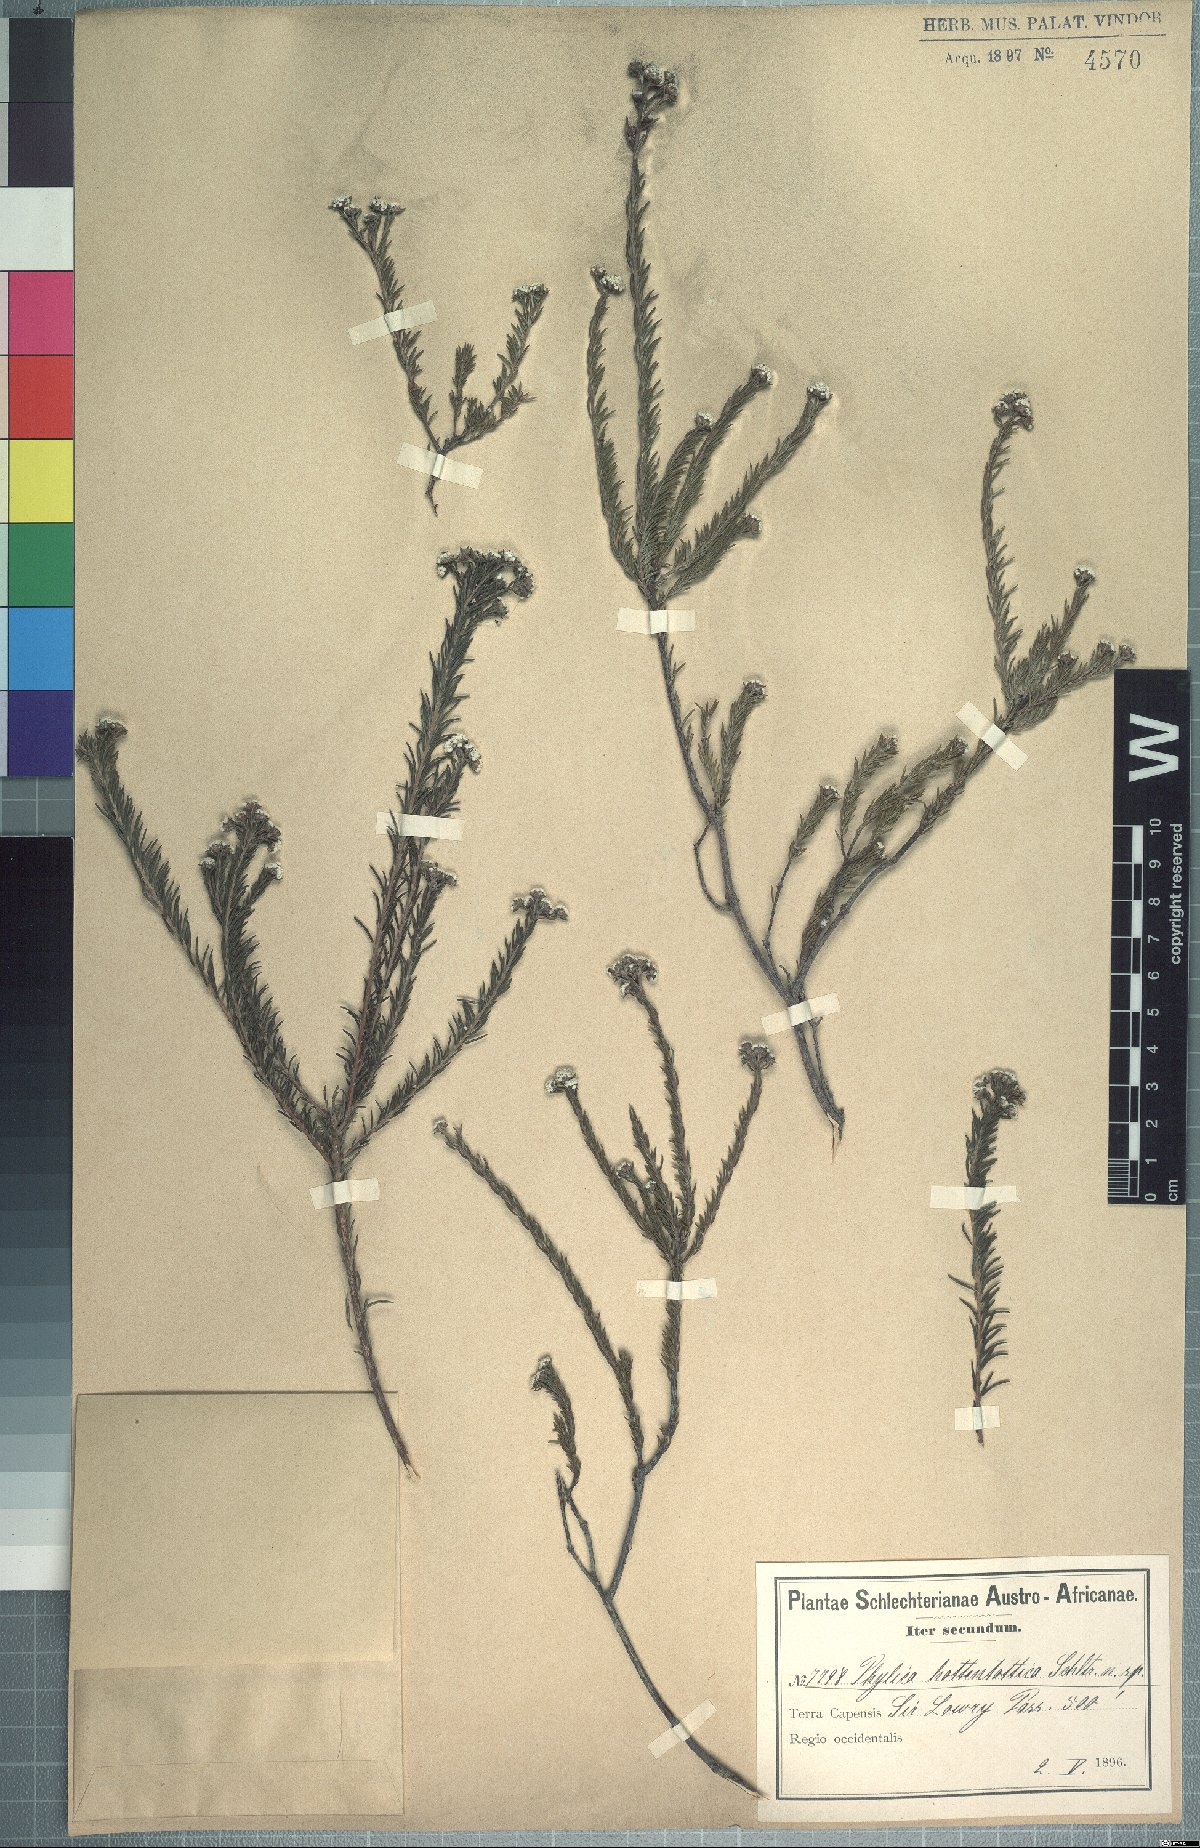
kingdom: Plantae
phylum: Tracheophyta
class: Magnoliopsida
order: Rosales
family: Rhamnaceae
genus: Phylica
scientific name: Phylica ericoides
